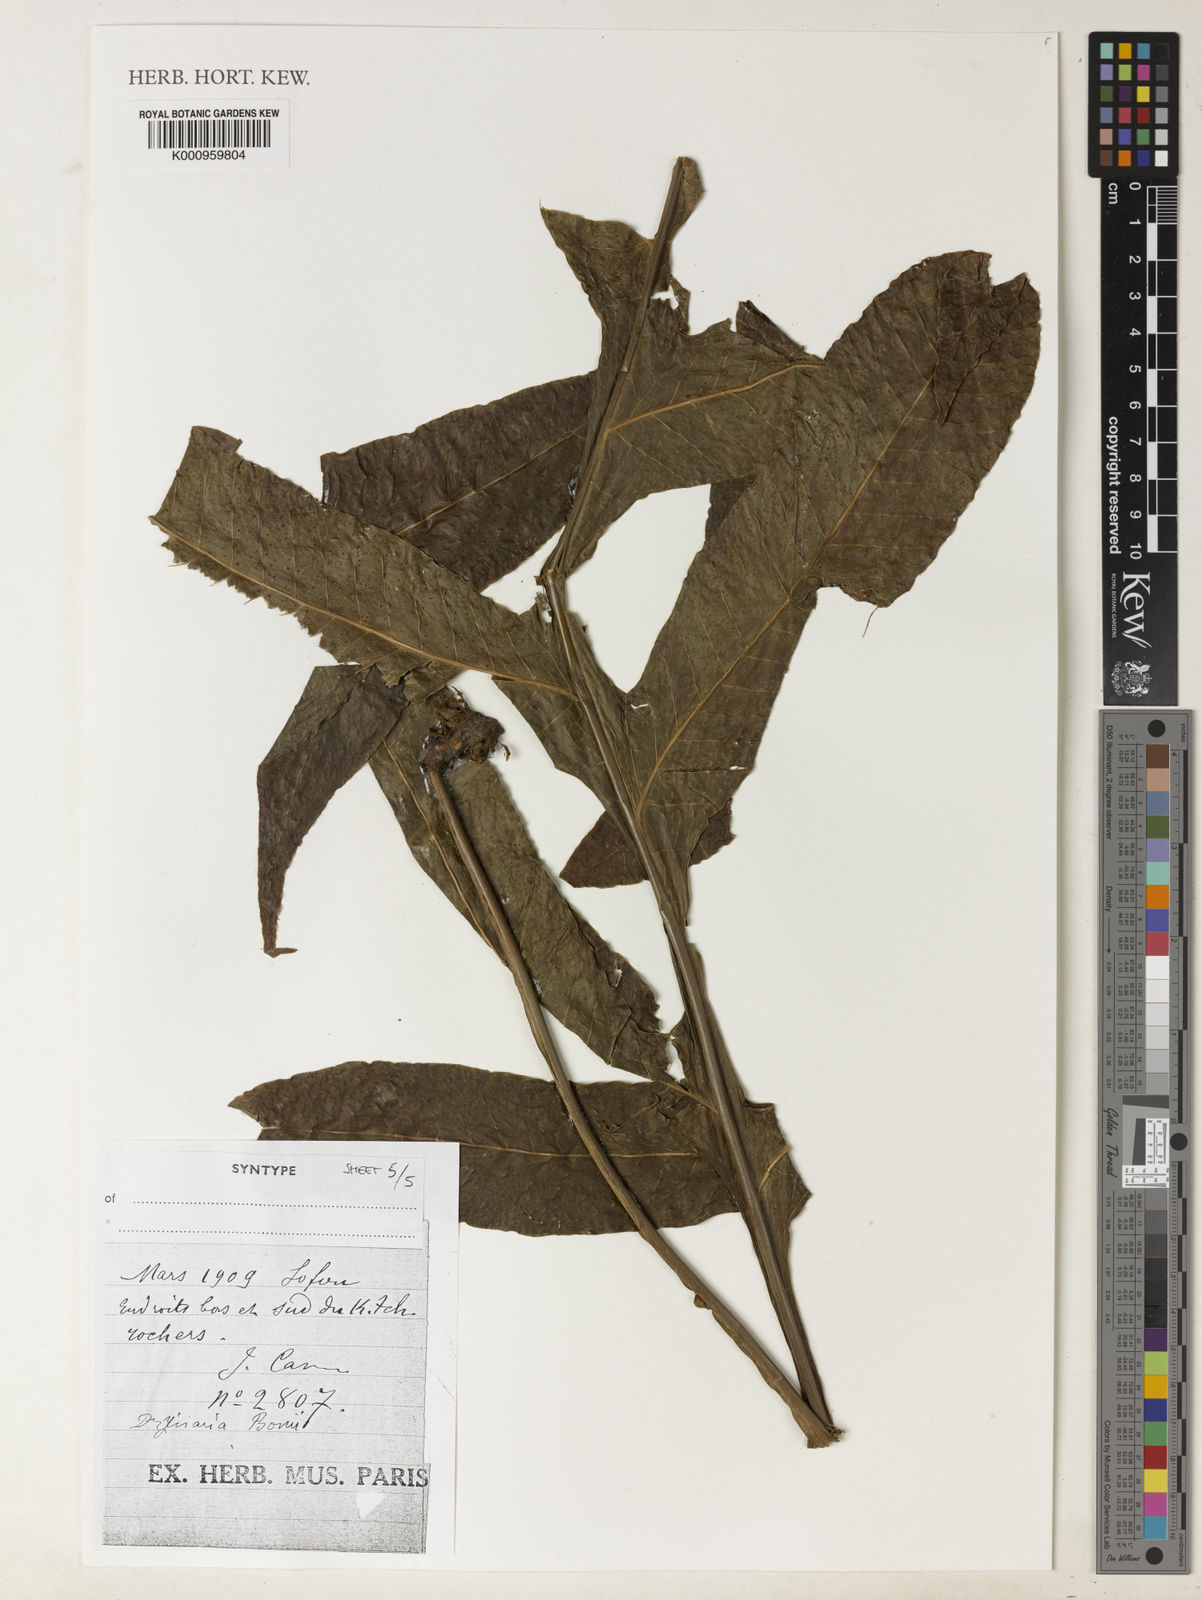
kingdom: Plantae
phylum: Tracheophyta
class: Polypodiopsida
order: Polypodiales
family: Polypodiaceae
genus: Drynaria
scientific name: Drynaria bonii
